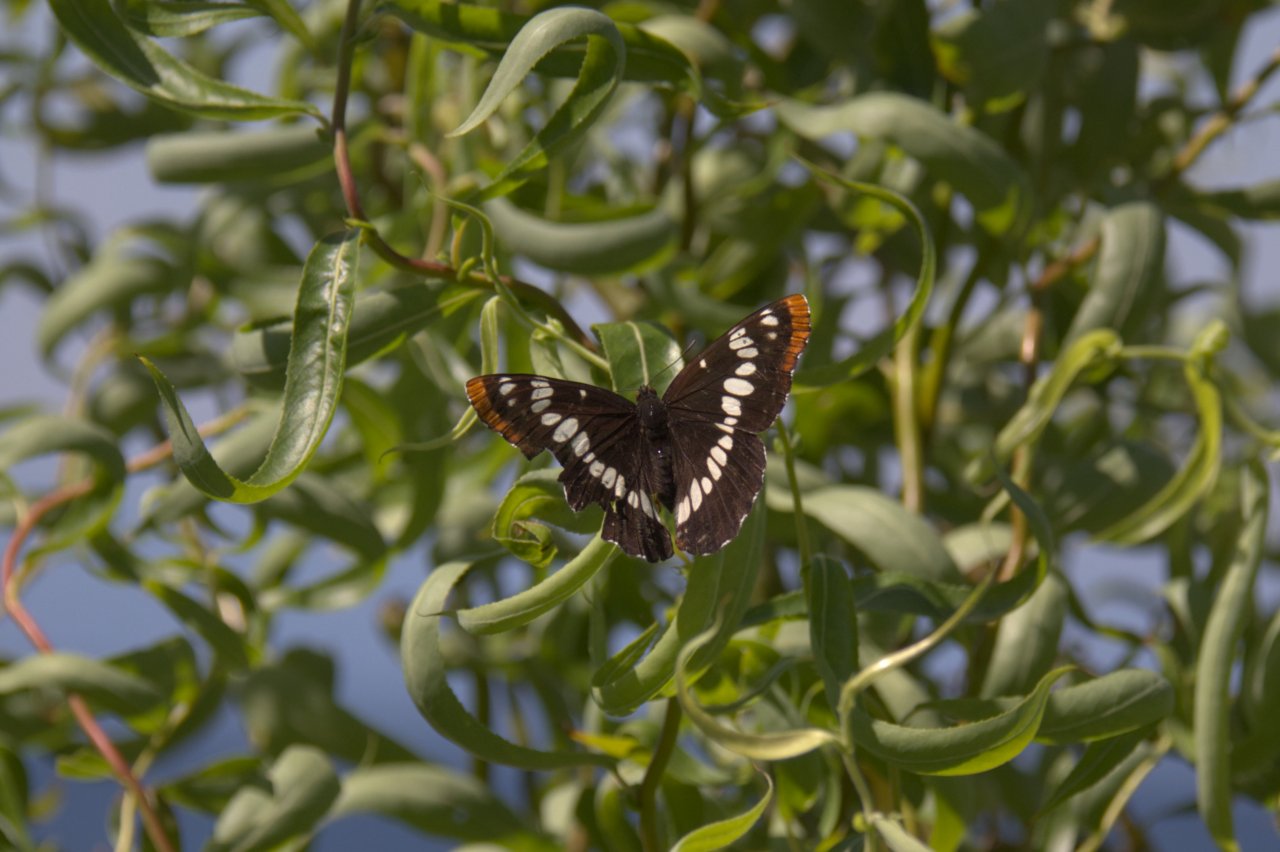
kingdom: Animalia
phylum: Arthropoda
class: Insecta
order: Lepidoptera
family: Nymphalidae
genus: Limenitis
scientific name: Limenitis lorquini
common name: Lorquin's Admiral
